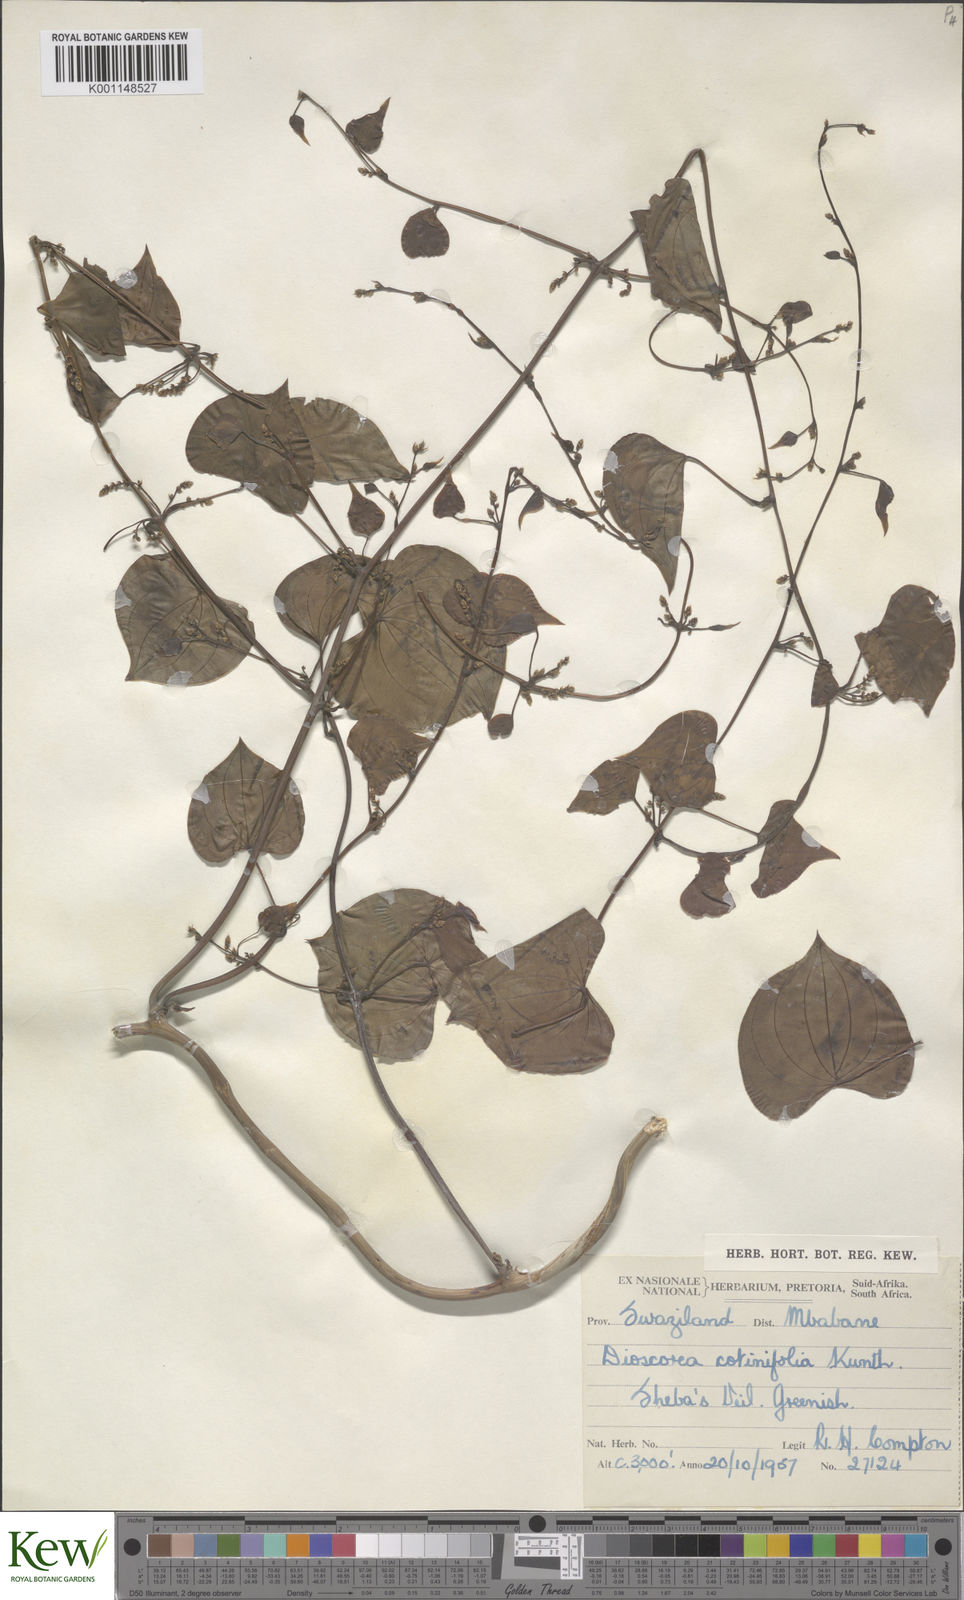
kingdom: Plantae
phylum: Tracheophyta
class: Liliopsida
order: Dioscoreales
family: Dioscoreaceae
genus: Dioscorea
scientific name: Dioscorea cotinifolia
